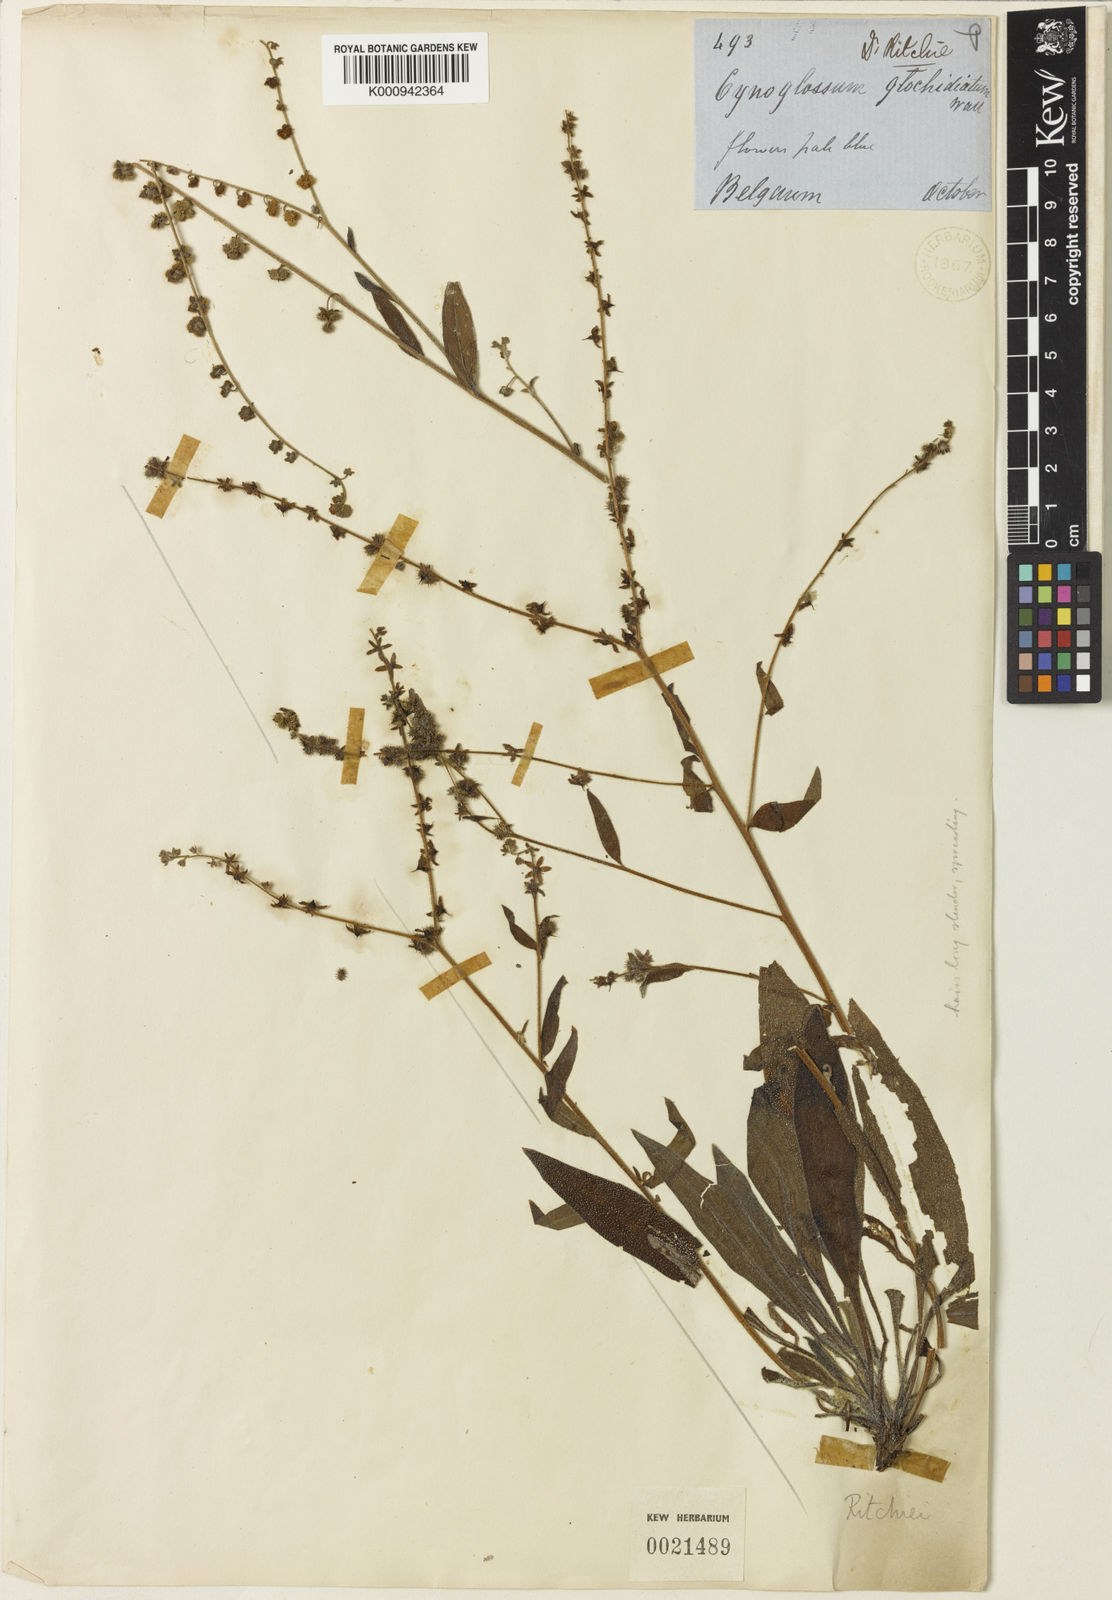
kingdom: Plantae
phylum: Tracheophyta
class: Magnoliopsida
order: Boraginales
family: Boraginaceae
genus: Cynoglossum
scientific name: Cynoglossum ritchiei
